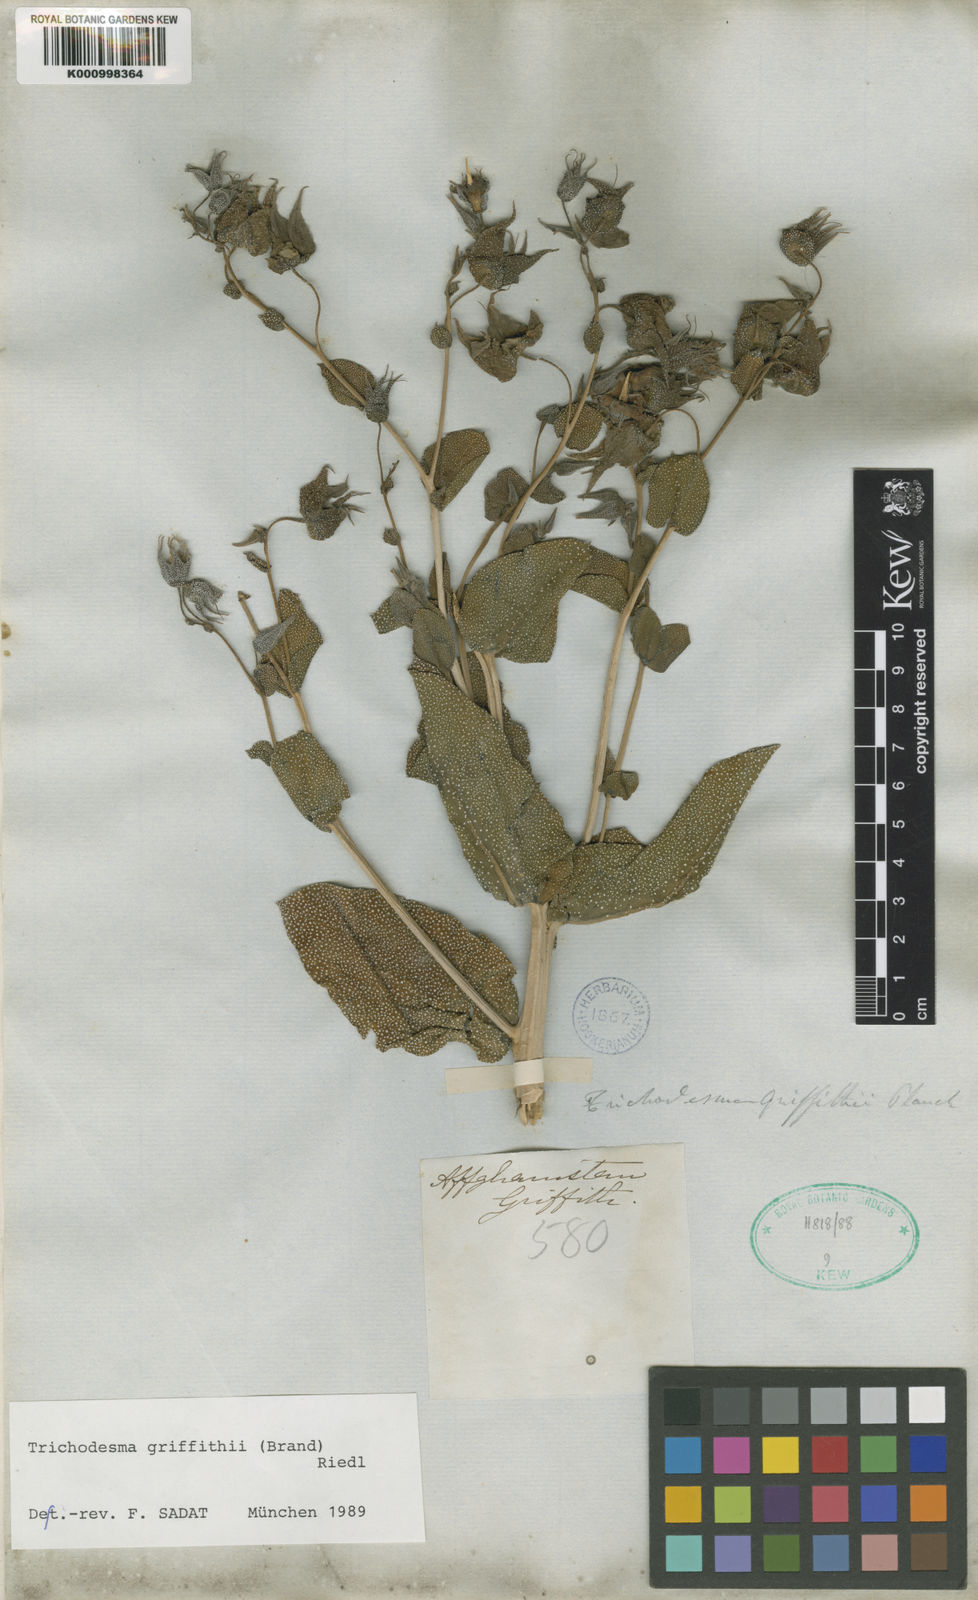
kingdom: Plantae
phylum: Tracheophyta
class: Magnoliopsida
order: Boraginales
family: Boraginaceae
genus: Trichodesma
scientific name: Trichodesma incanum
